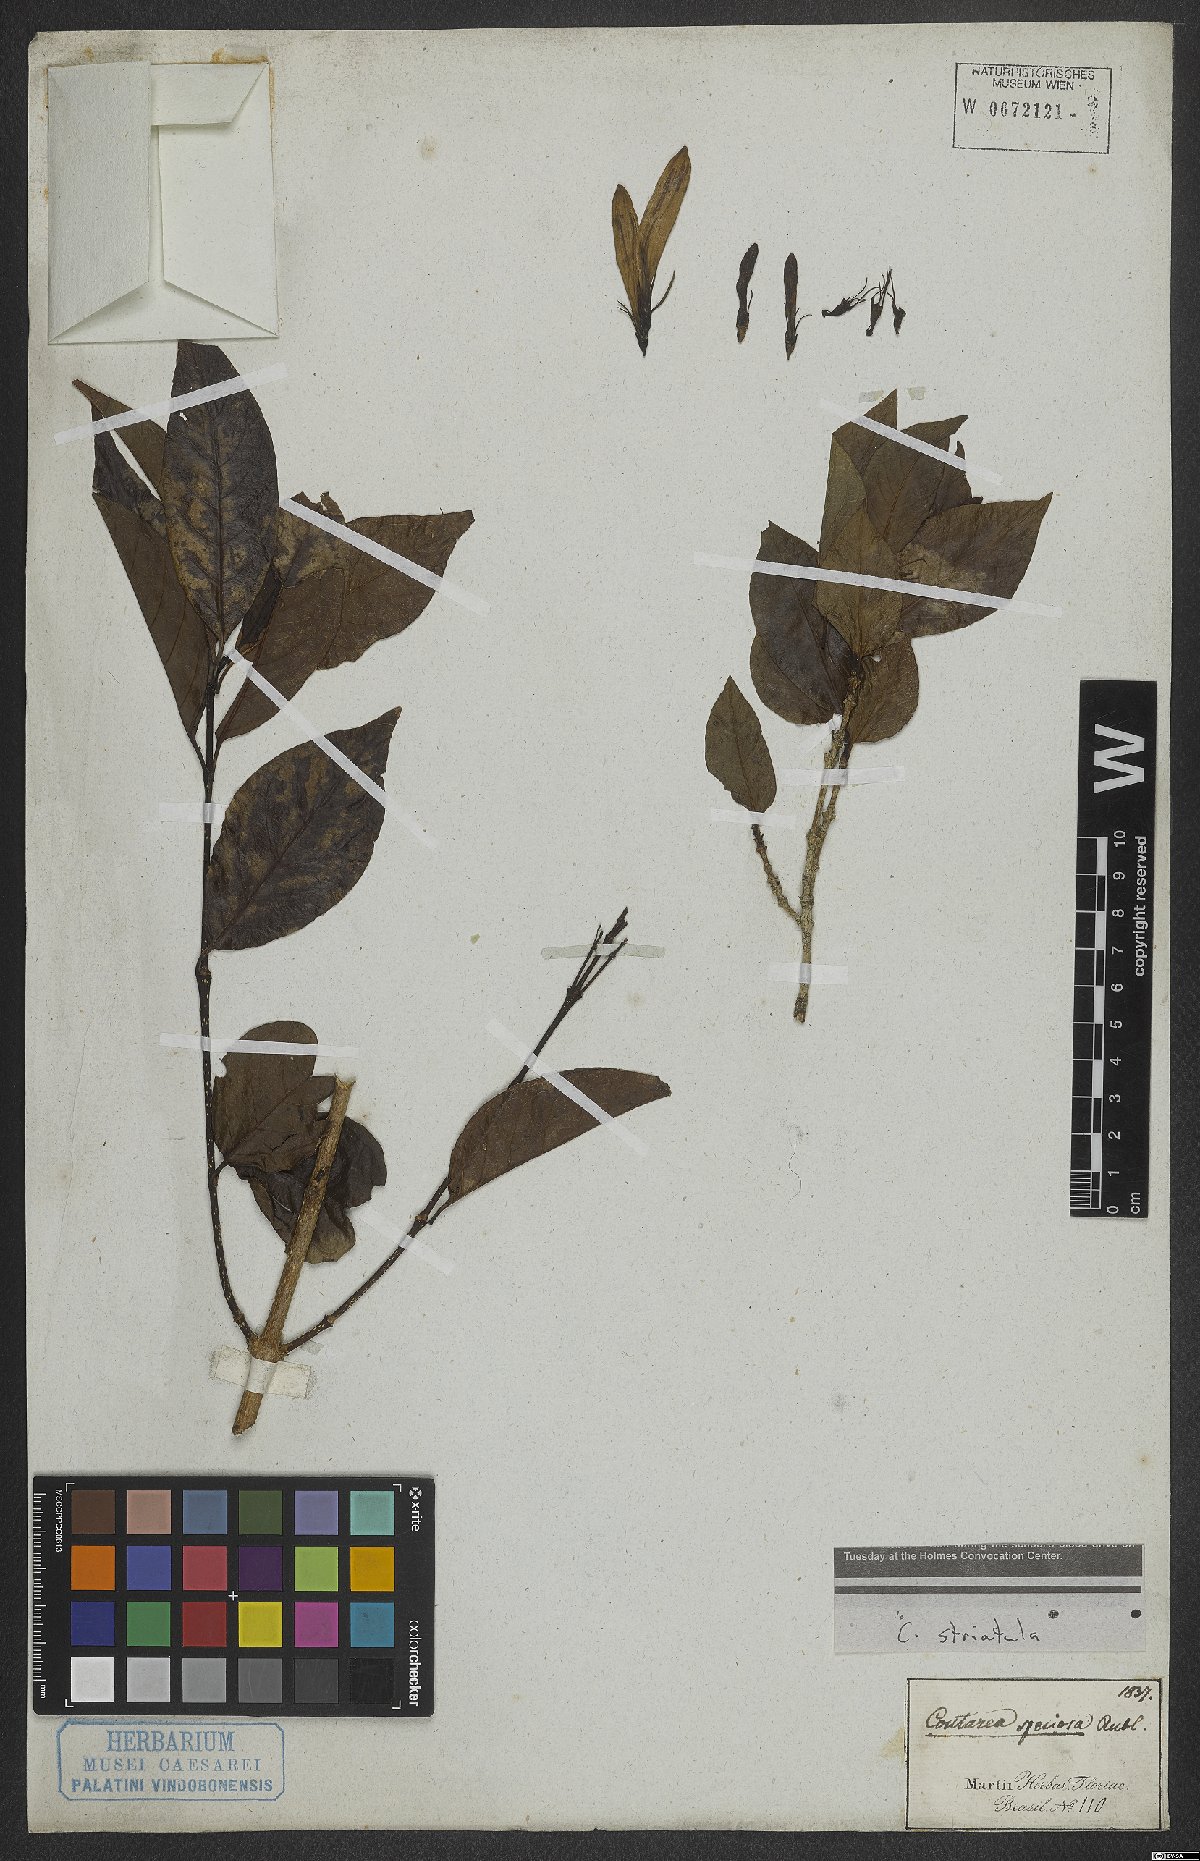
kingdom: Plantae
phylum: Tracheophyta
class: Magnoliopsida
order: Gentianales
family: Rubiaceae
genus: Coutarea
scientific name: Coutarea hexandra
